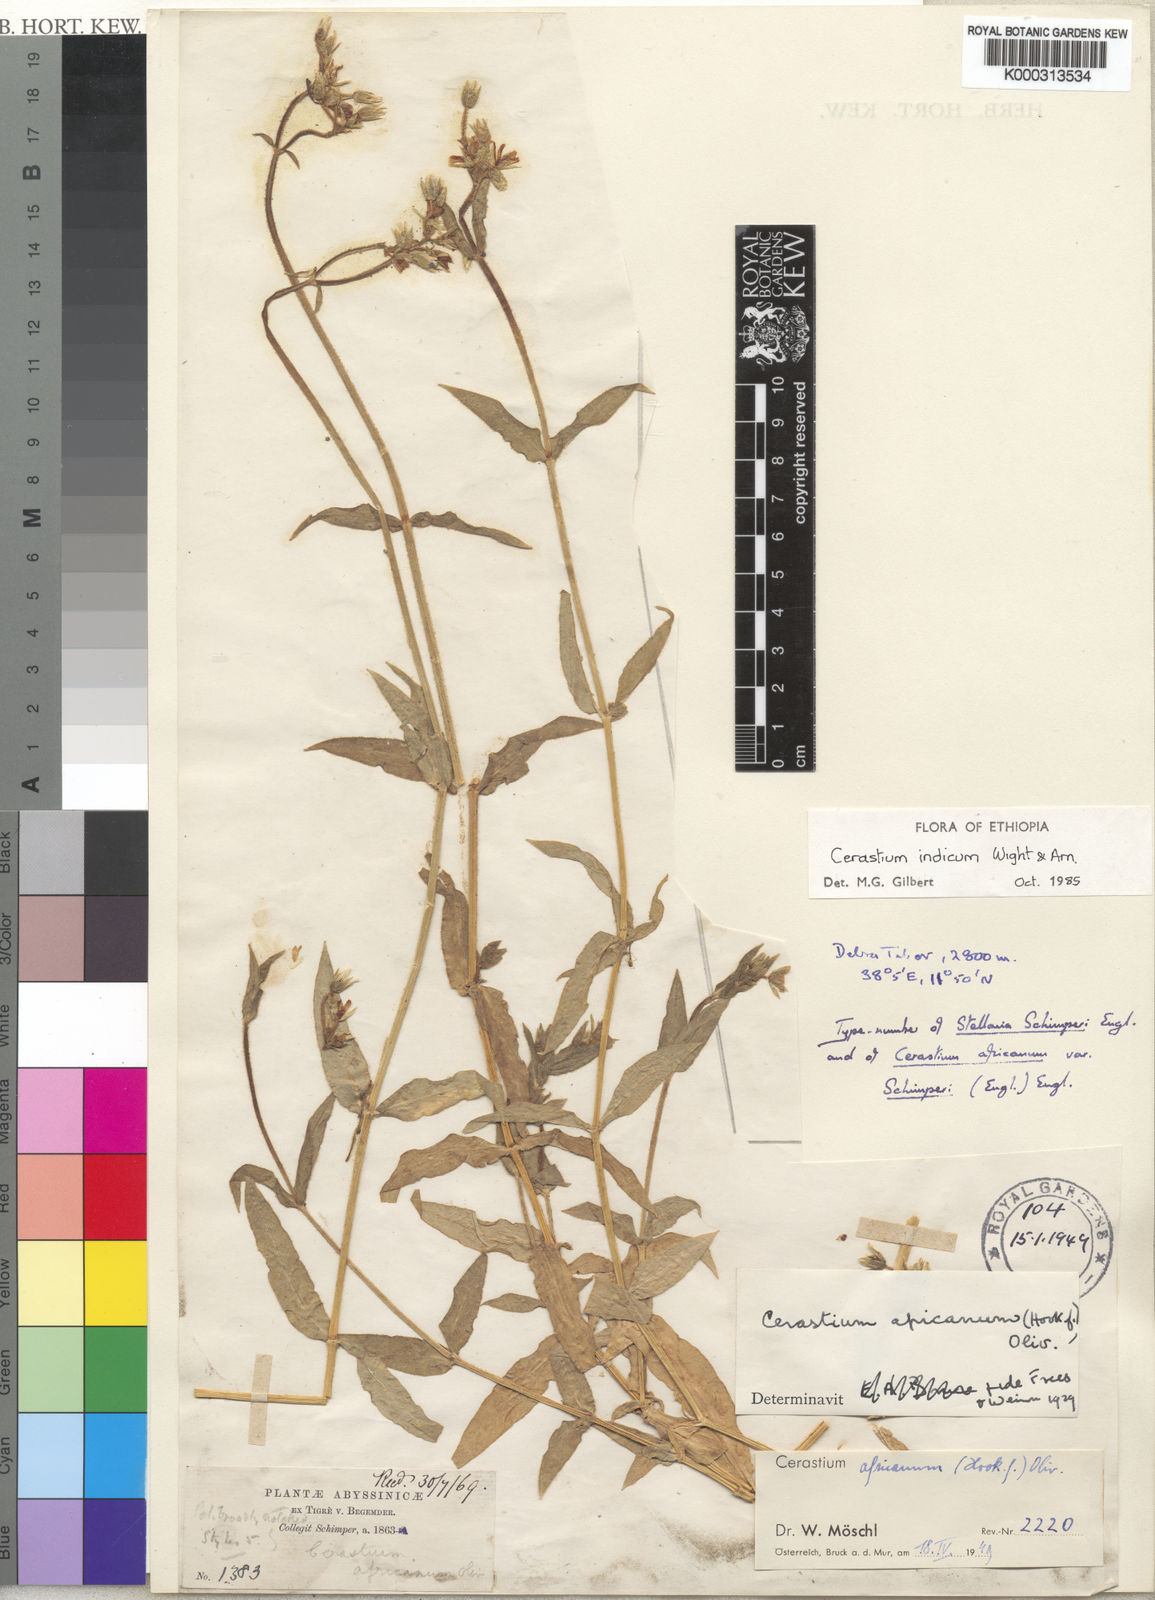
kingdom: Plantae
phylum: Tracheophyta
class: Magnoliopsida
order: Caryophyllales
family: Caryophyllaceae
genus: Cerastium
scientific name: Cerastium lanceolatum
